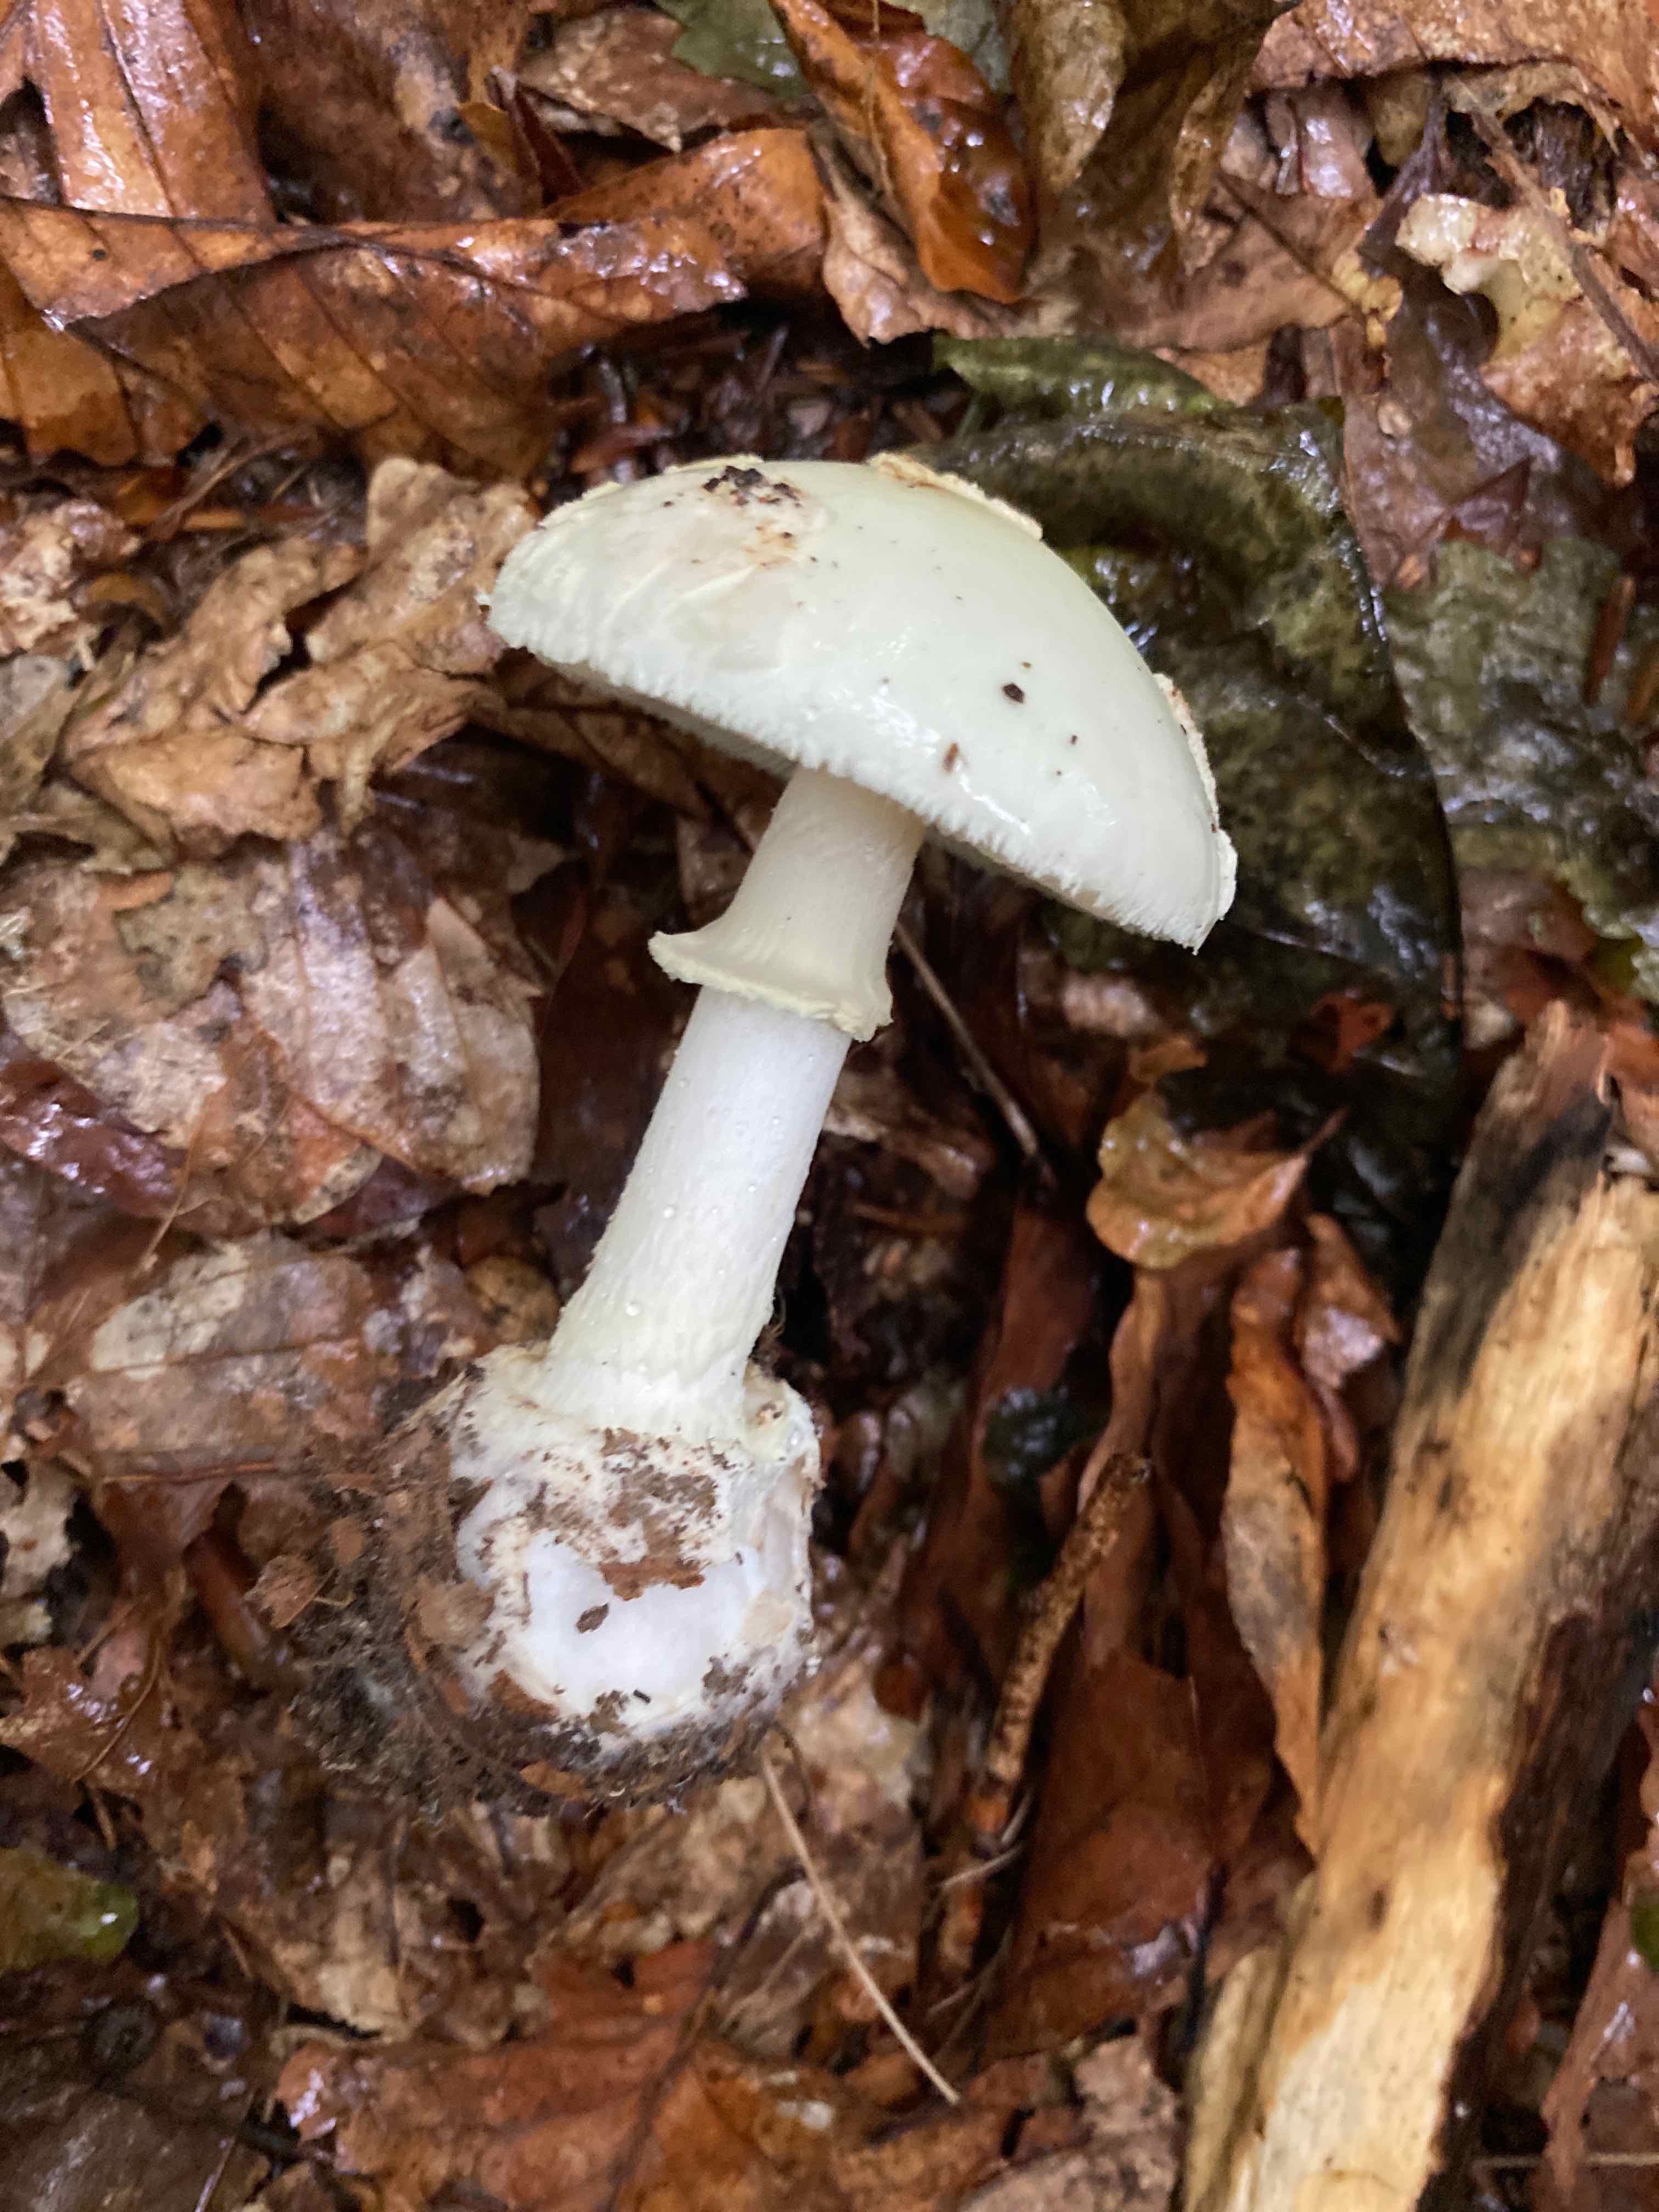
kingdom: Fungi
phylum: Basidiomycota
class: Agaricomycetes
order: Agaricales
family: Amanitaceae
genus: Amanita
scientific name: Amanita citrina
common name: kugleknoldet fluesvamp
